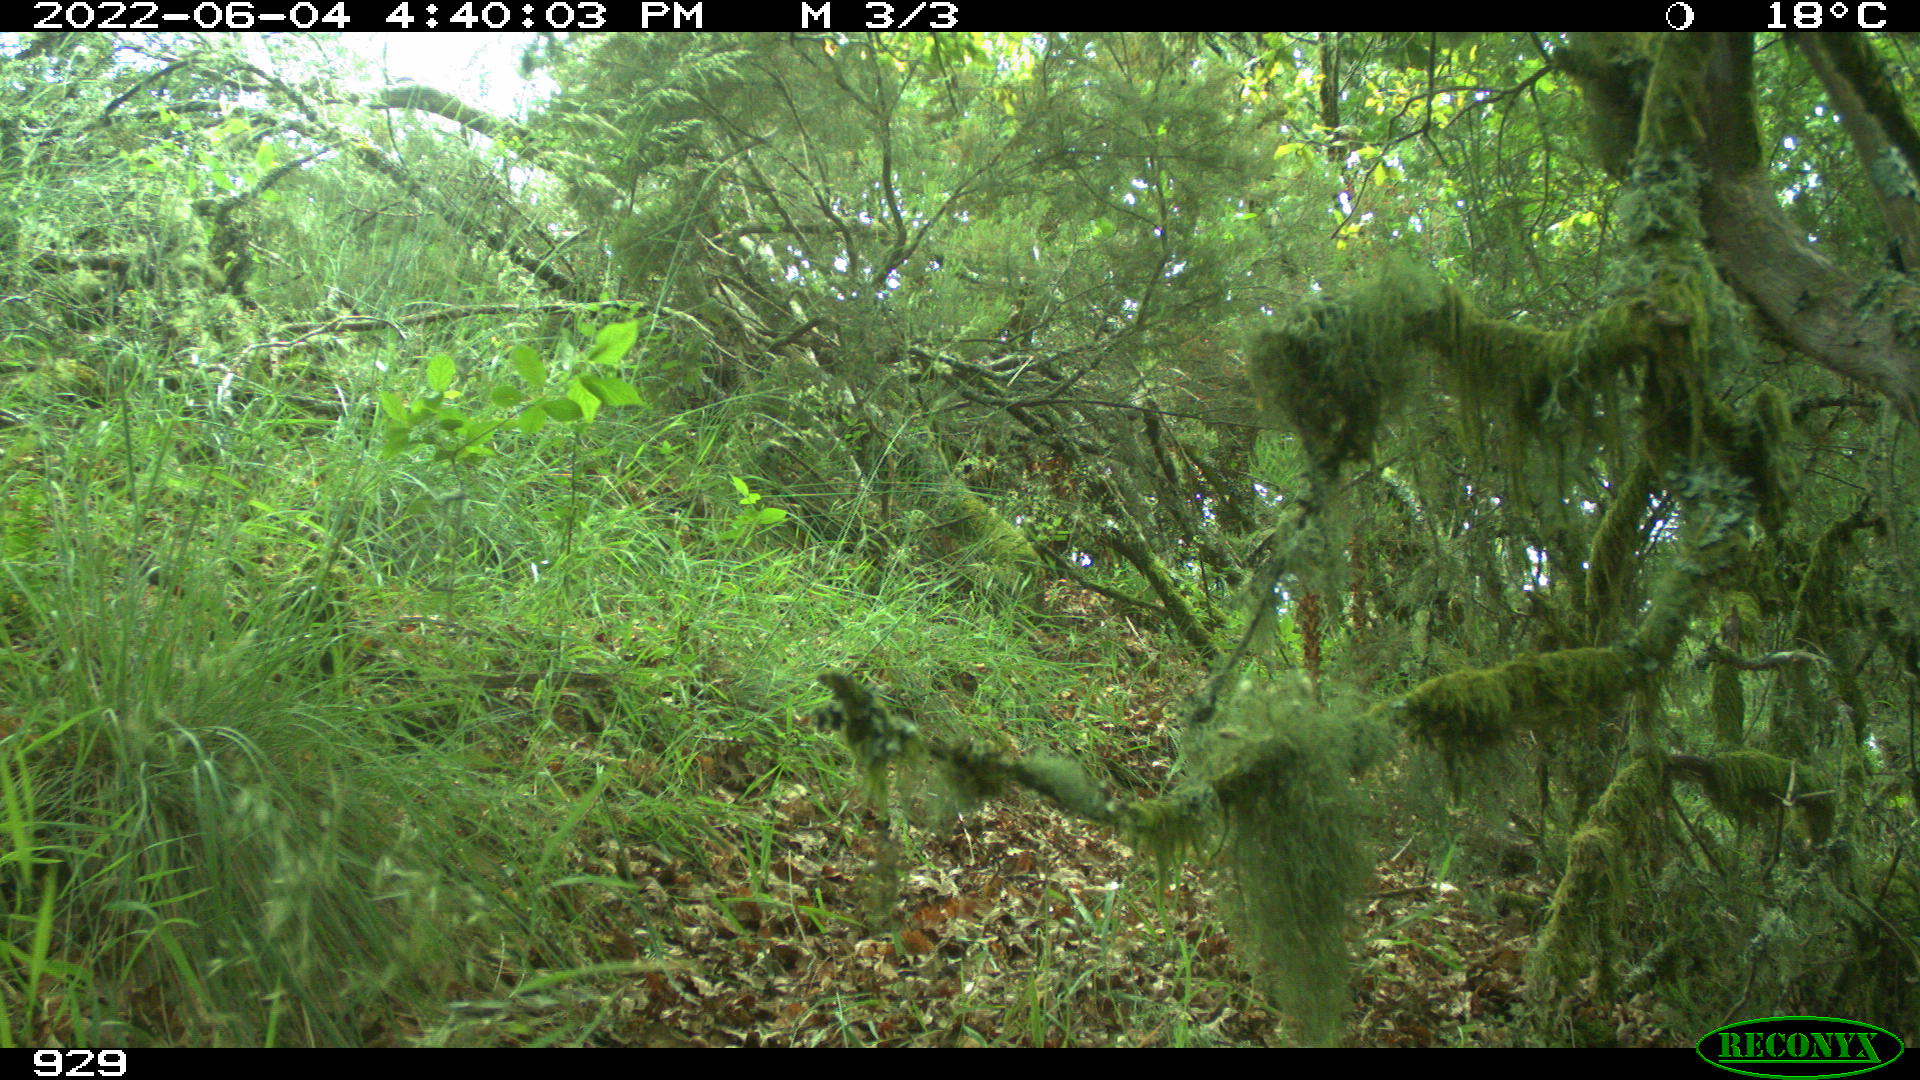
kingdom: Animalia
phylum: Chordata
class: Mammalia
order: Carnivora
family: Canidae
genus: Canis
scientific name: Canis lupus
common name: Gray wolf
